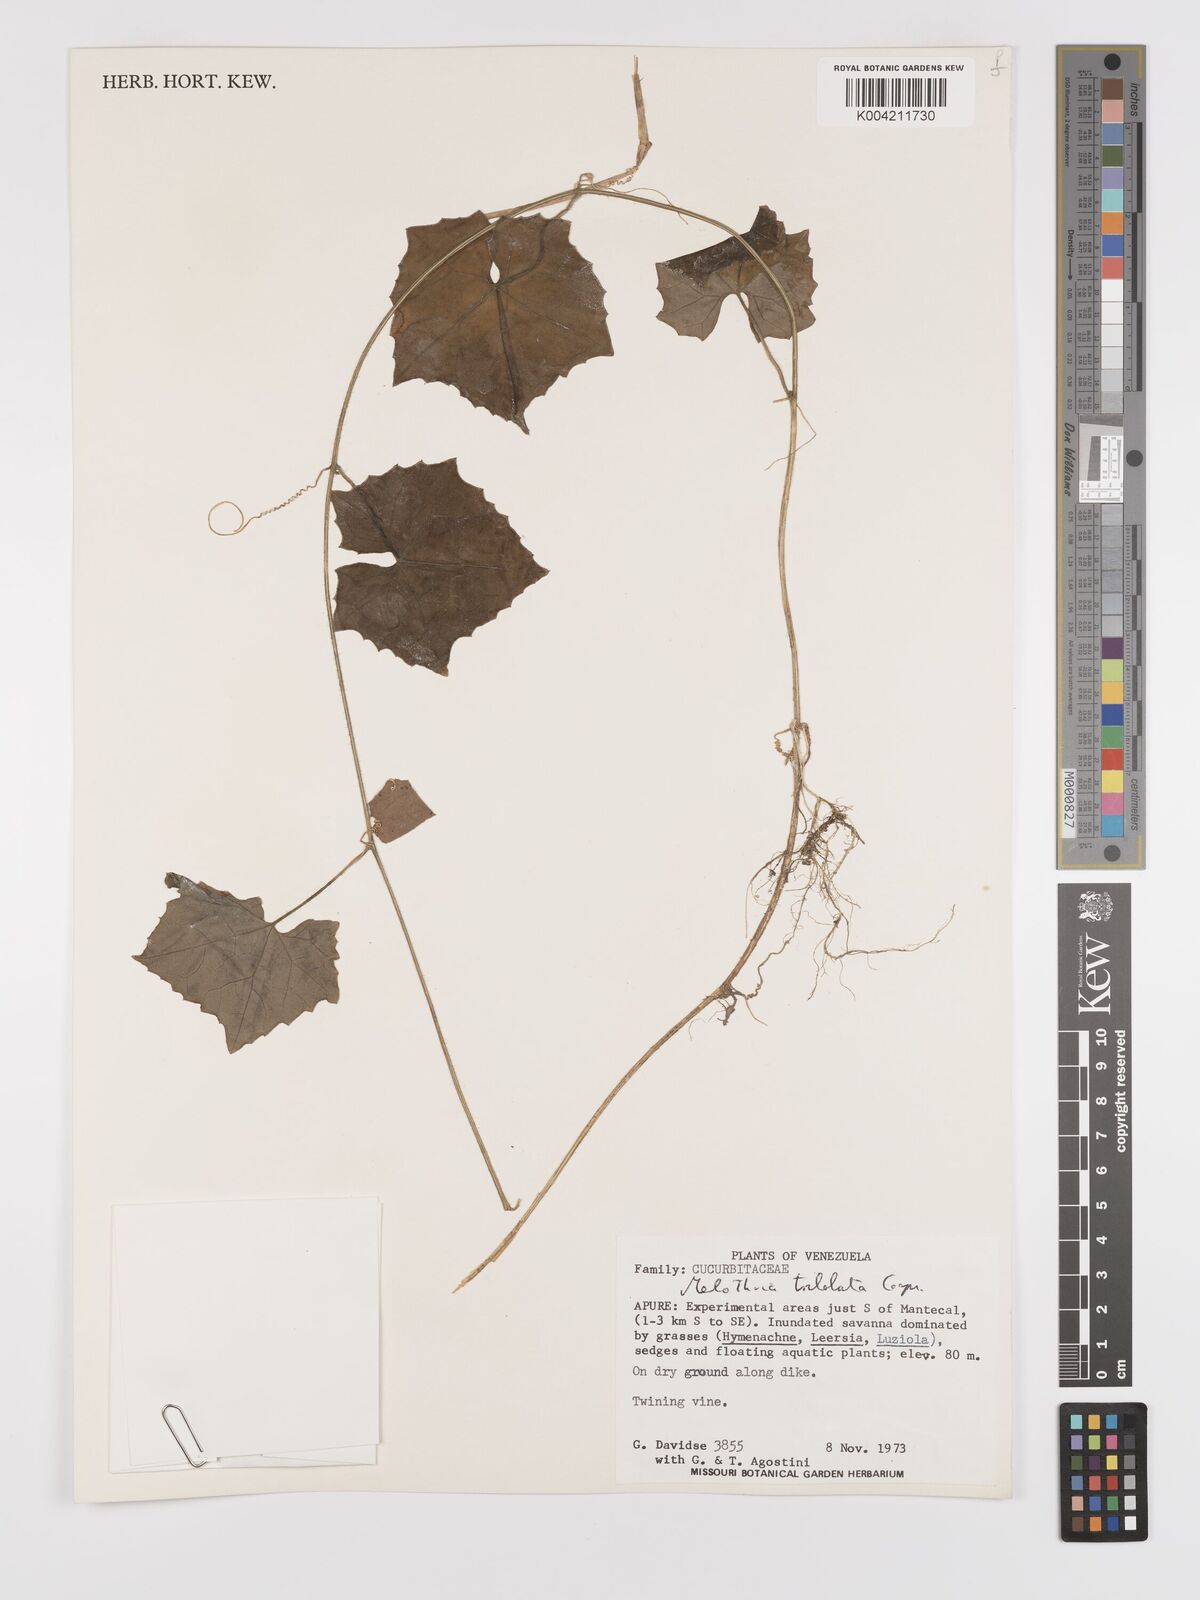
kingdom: Plantae
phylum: Tracheophyta
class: Magnoliopsida
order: Cucurbitales
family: Cucurbitaceae
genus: Melothria
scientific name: Melothria trilobata
